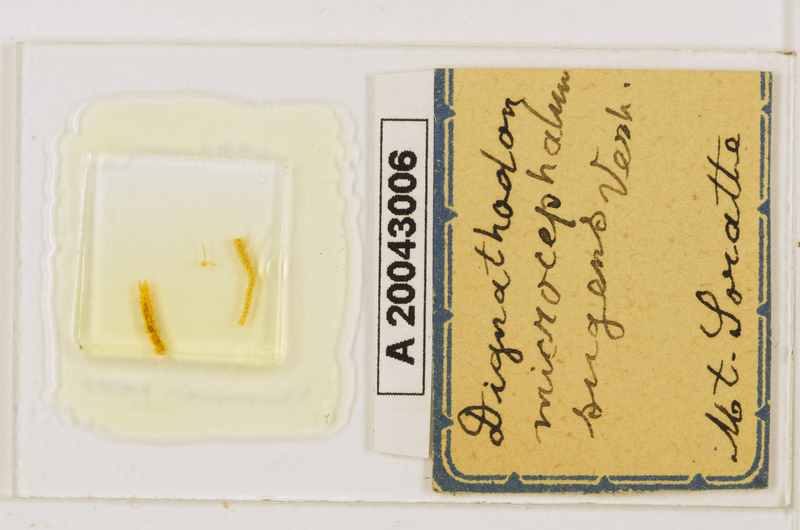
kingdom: Animalia
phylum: Arthropoda
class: Chilopoda
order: Geophilomorpha
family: Dignathodontidae
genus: Dignathodon
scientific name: Dignathodon microcephalus
